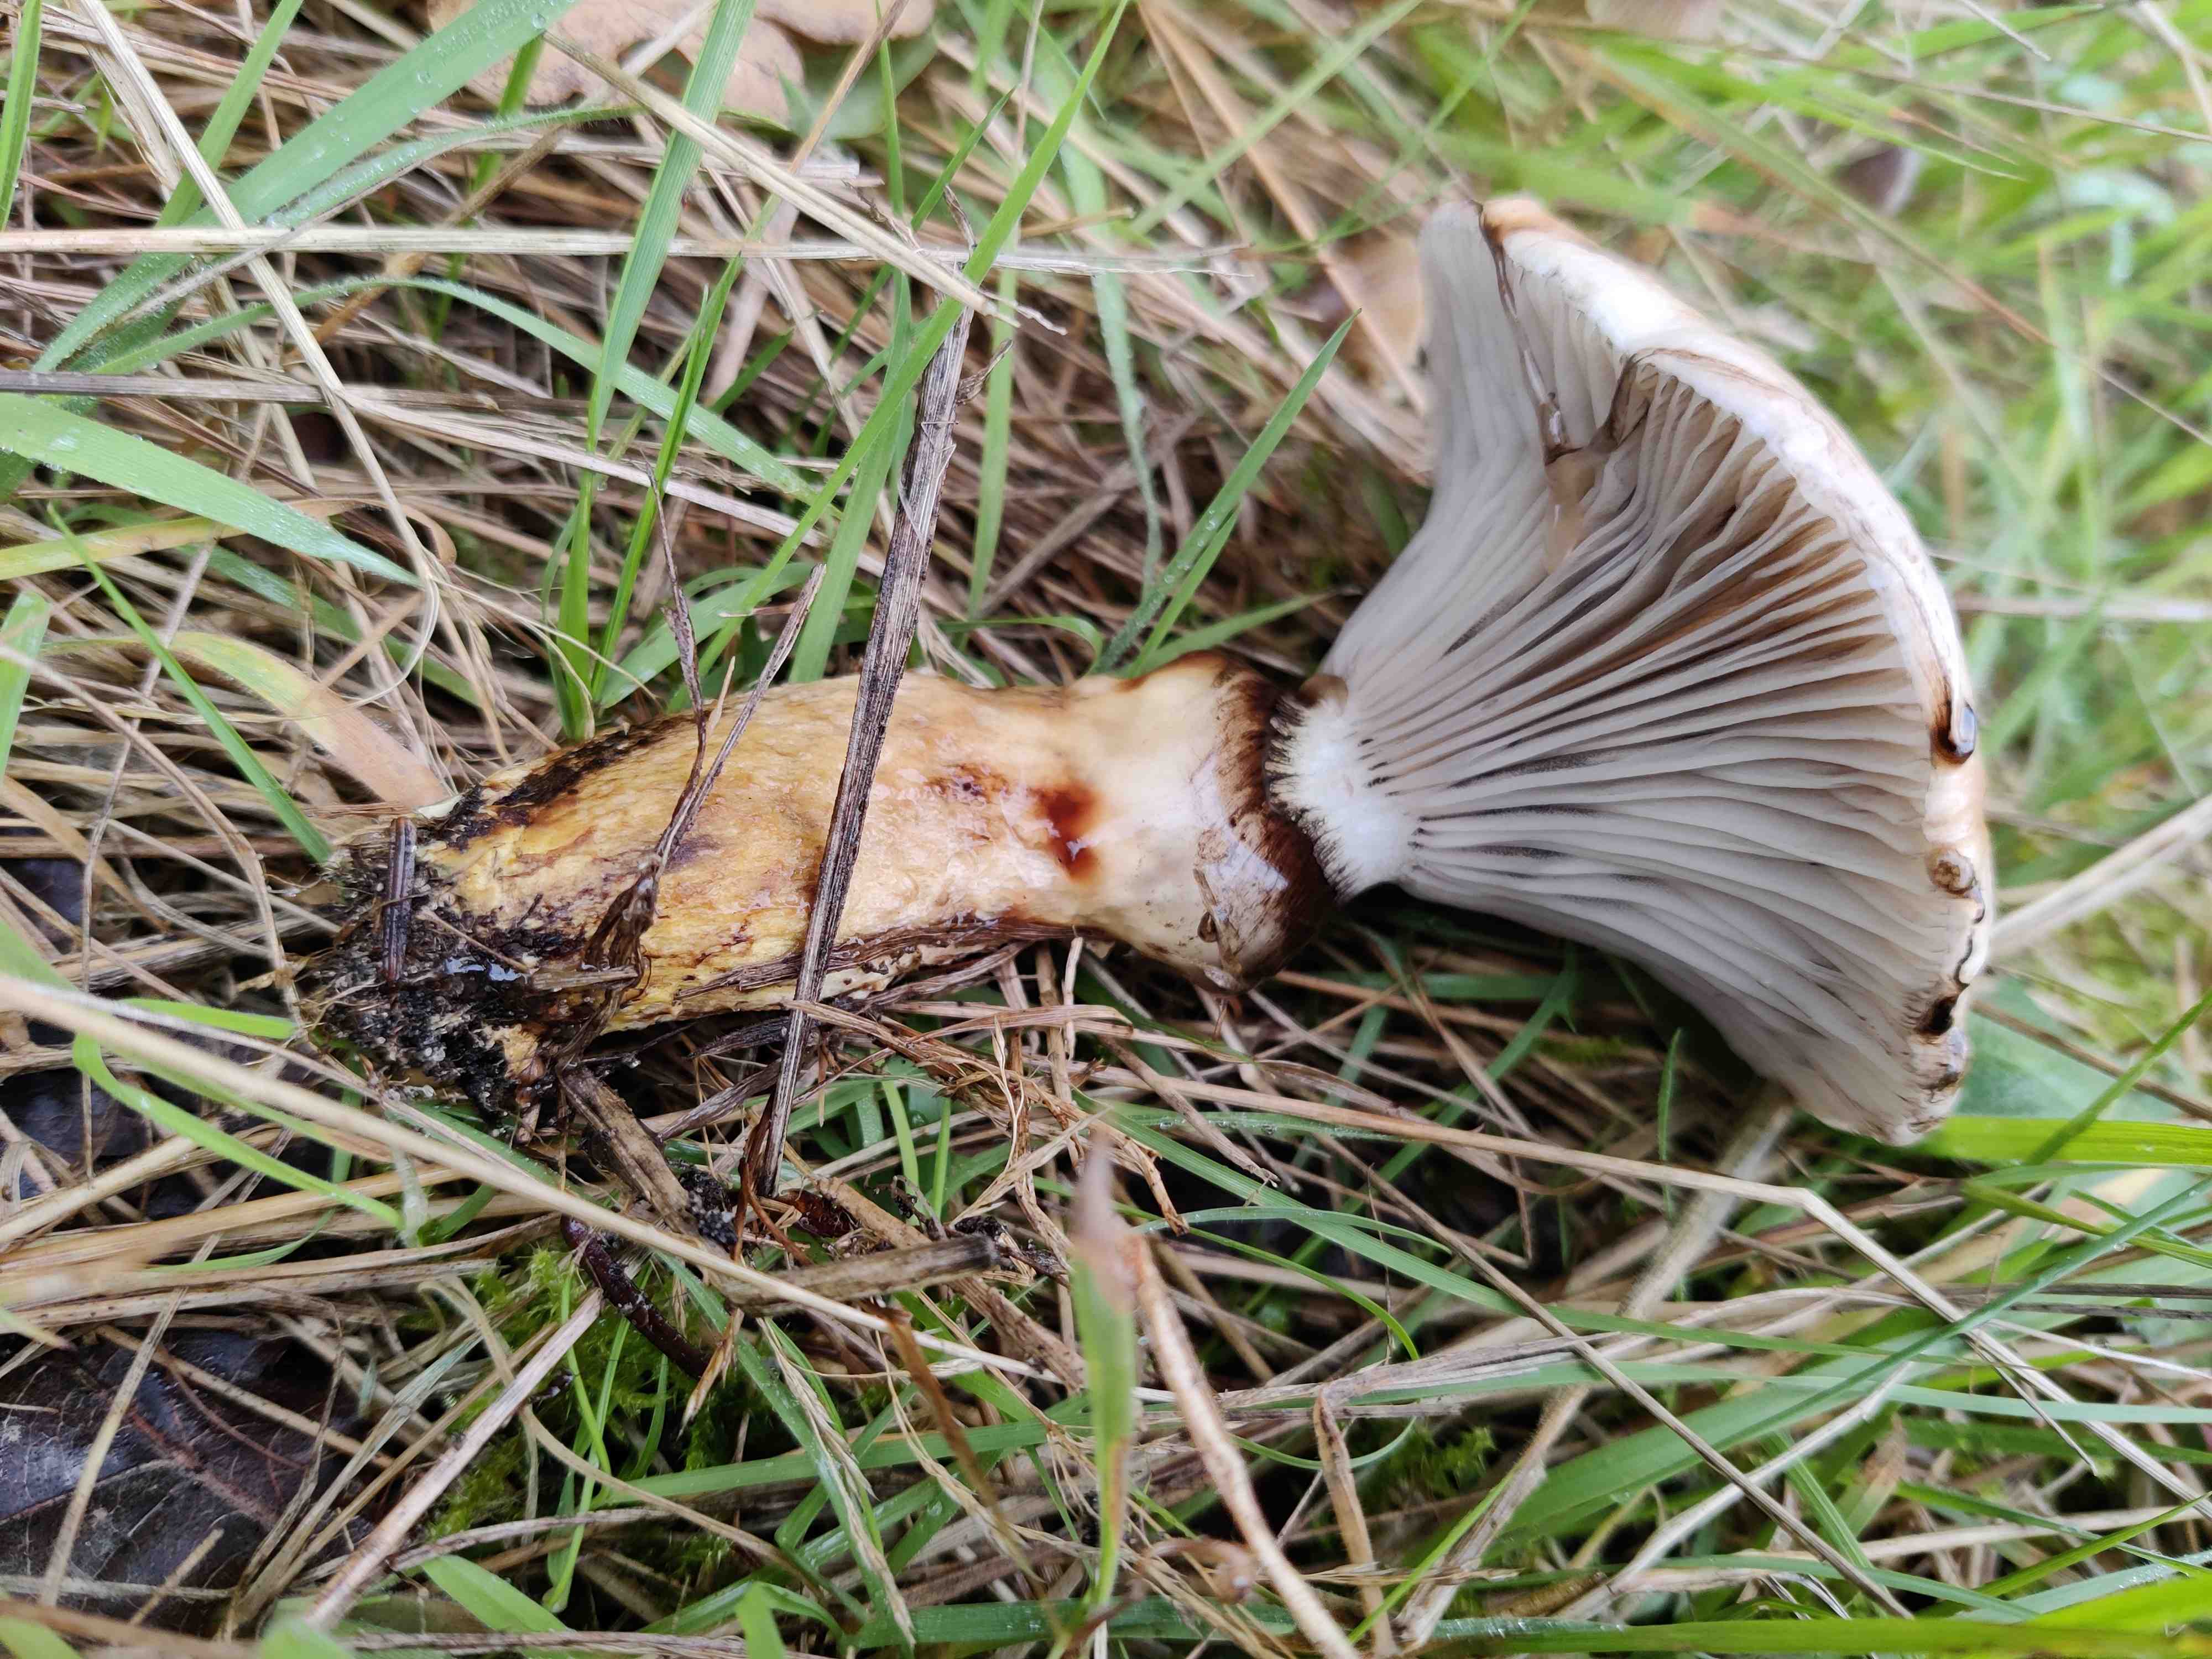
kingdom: Fungi
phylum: Basidiomycota
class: Agaricomycetes
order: Boletales
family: Gomphidiaceae
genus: Gomphidius
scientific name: Gomphidius glutinosus
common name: grå slimslør
